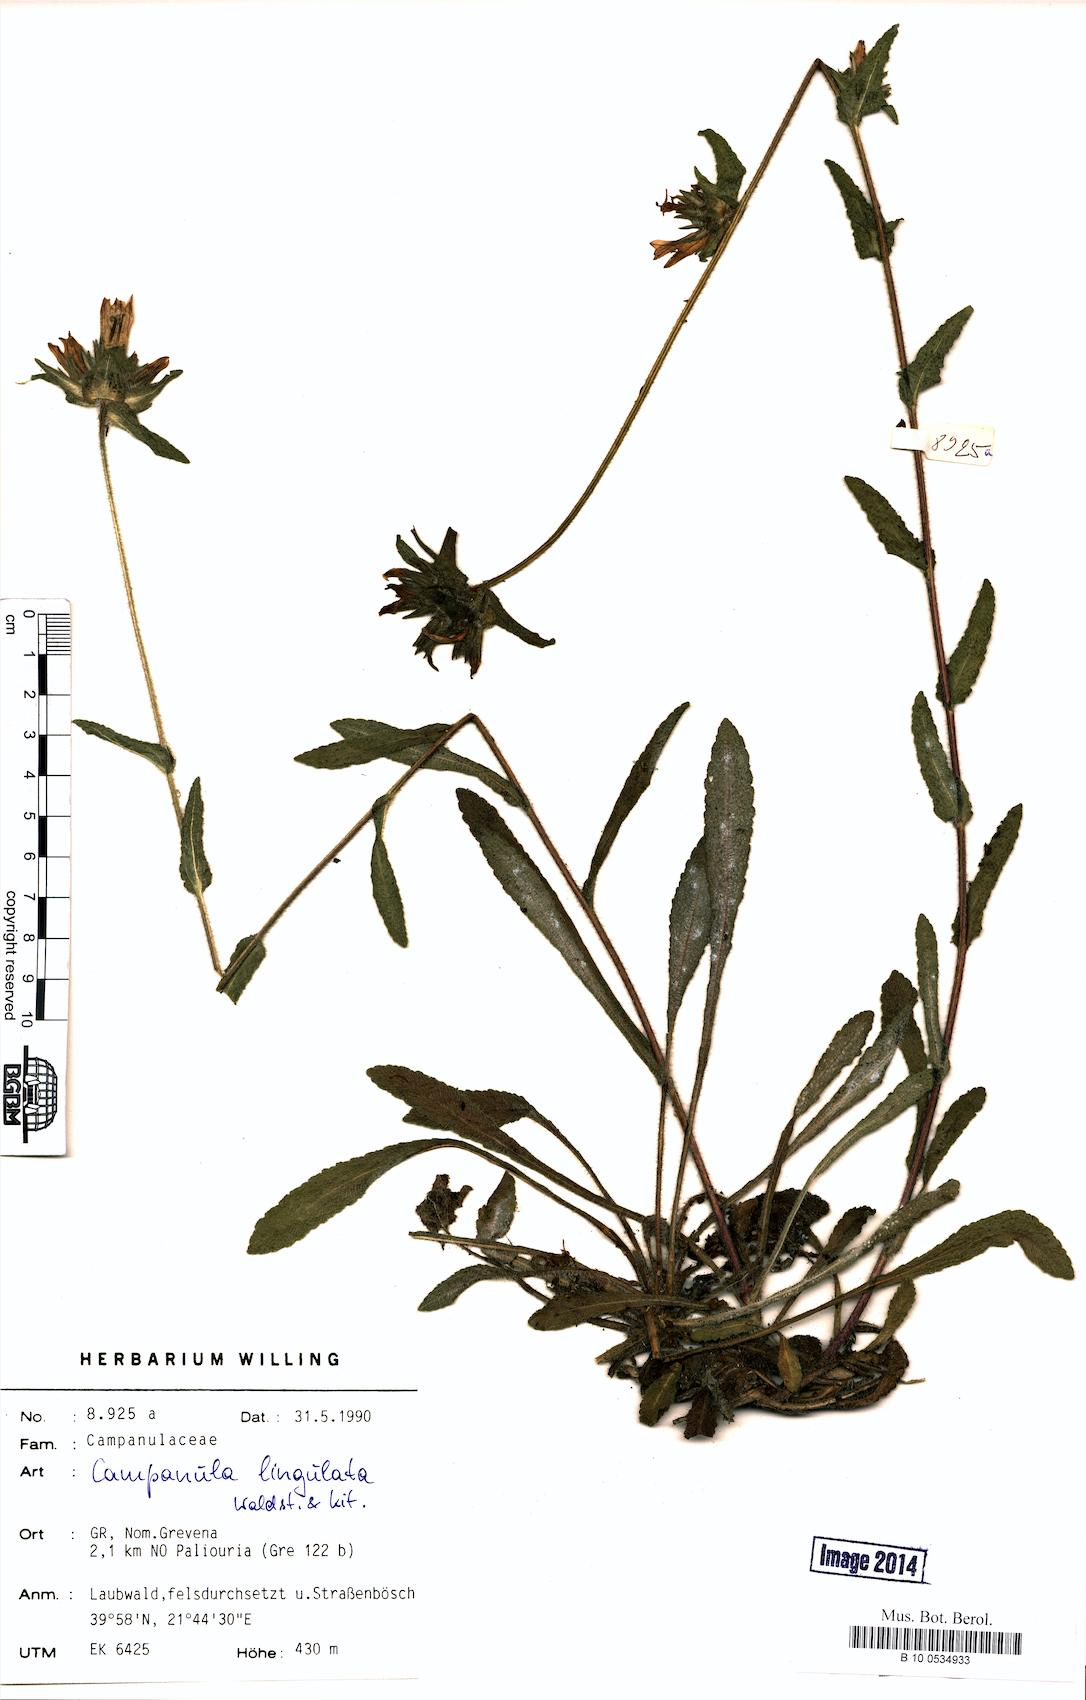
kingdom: Plantae
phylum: Tracheophyta
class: Magnoliopsida
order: Asterales
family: Campanulaceae
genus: Campanula
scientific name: Campanula lingulata
